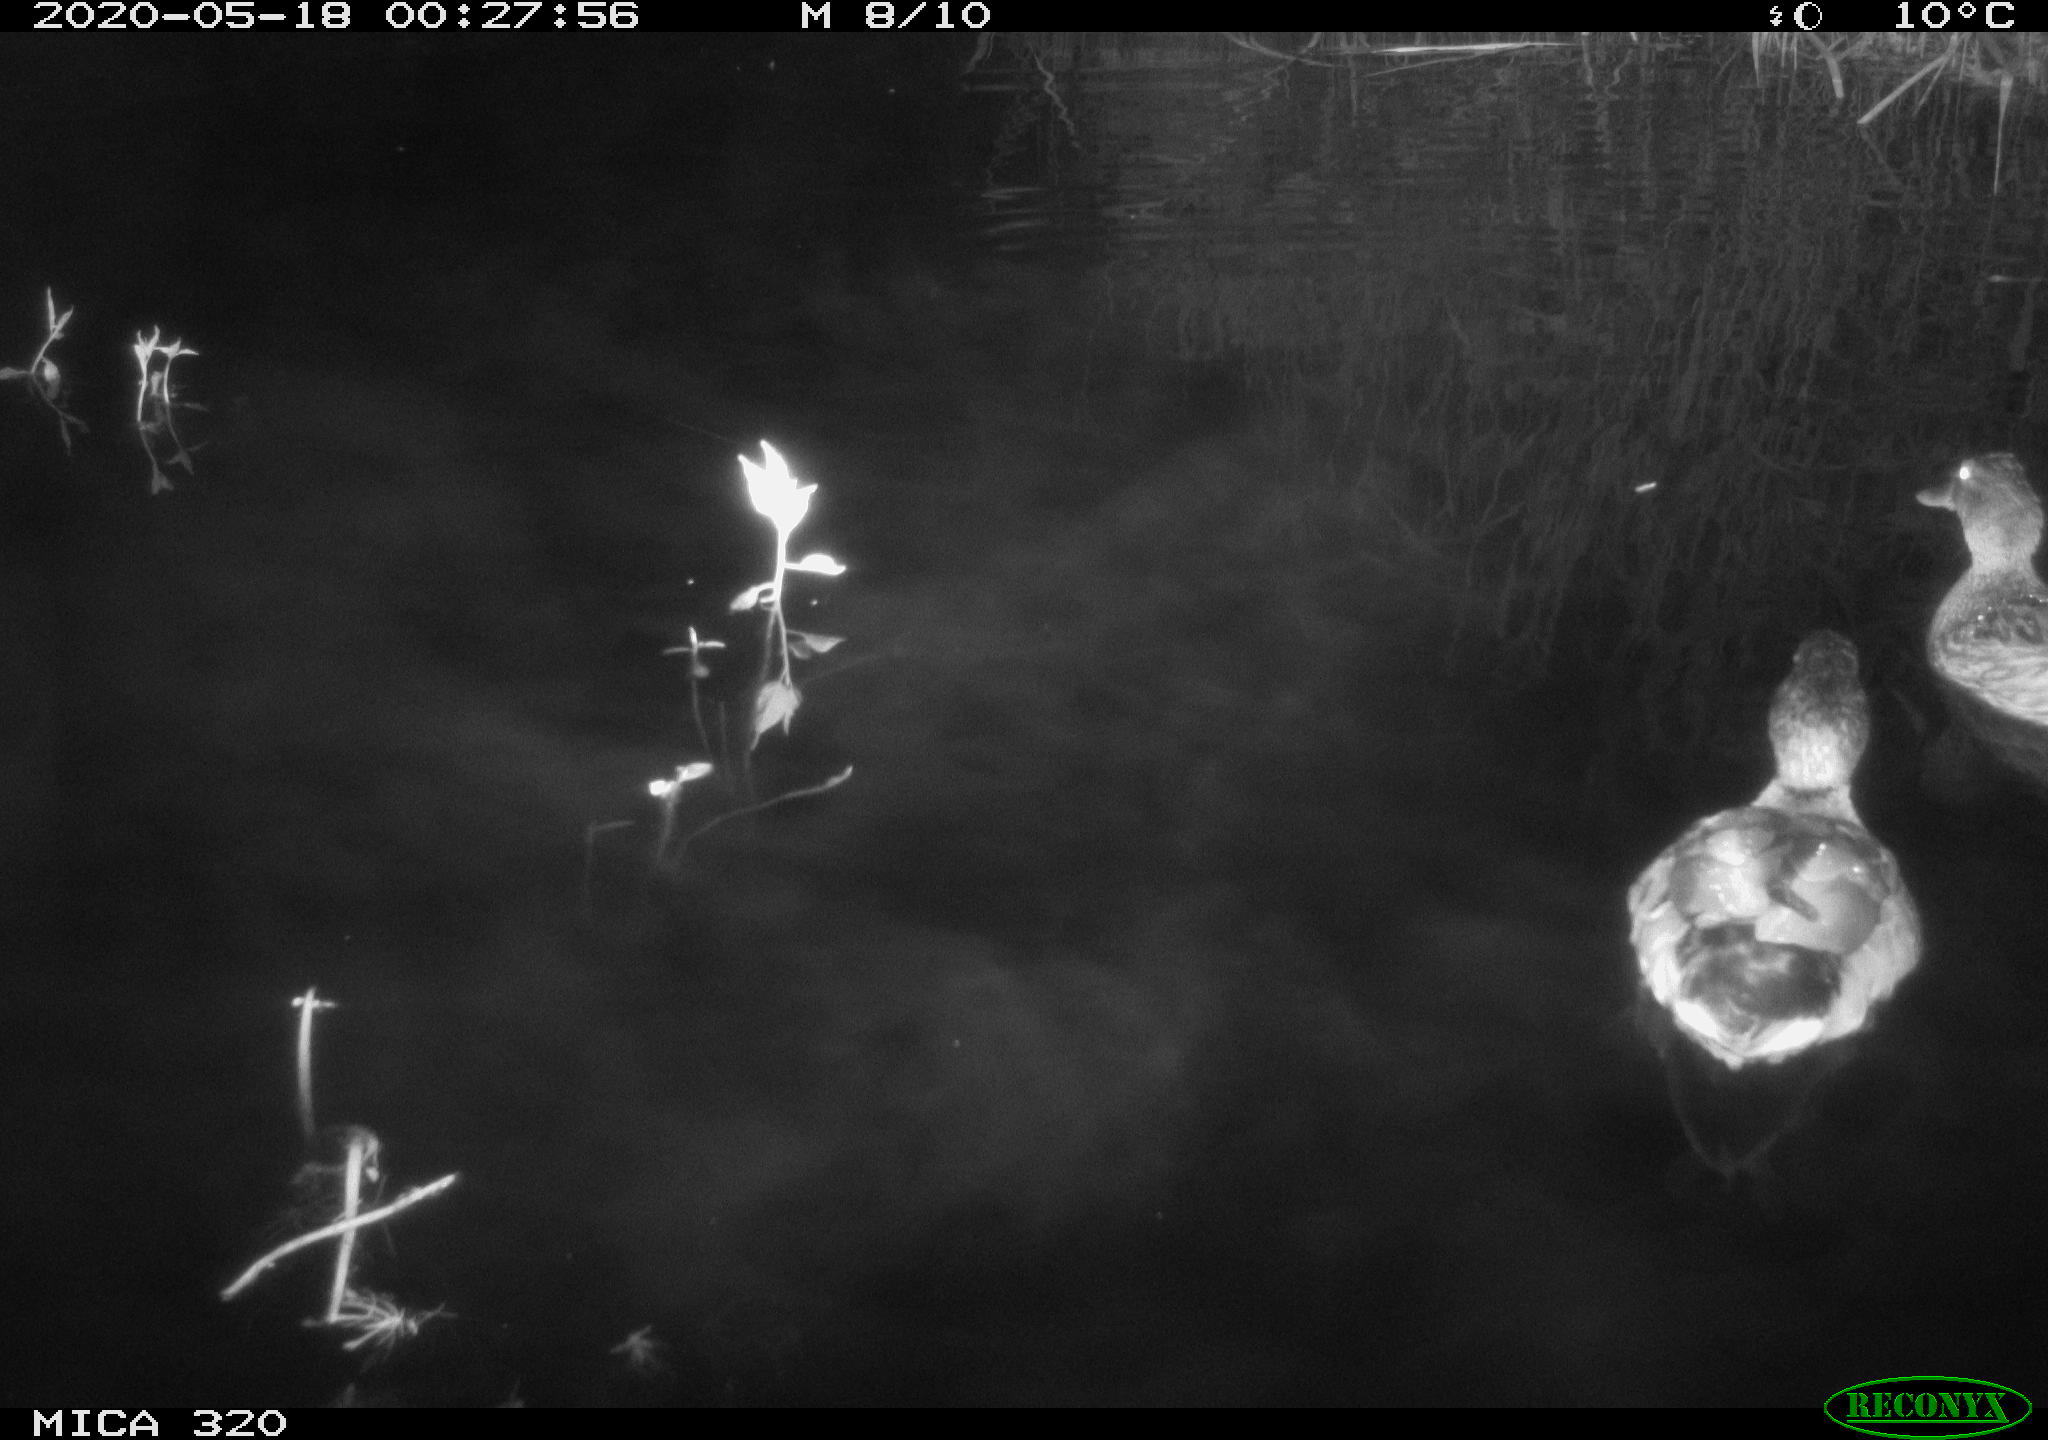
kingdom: Animalia
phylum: Chordata
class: Aves
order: Anseriformes
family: Anatidae
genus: Anas
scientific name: Anas platyrhynchos
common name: Mallard
